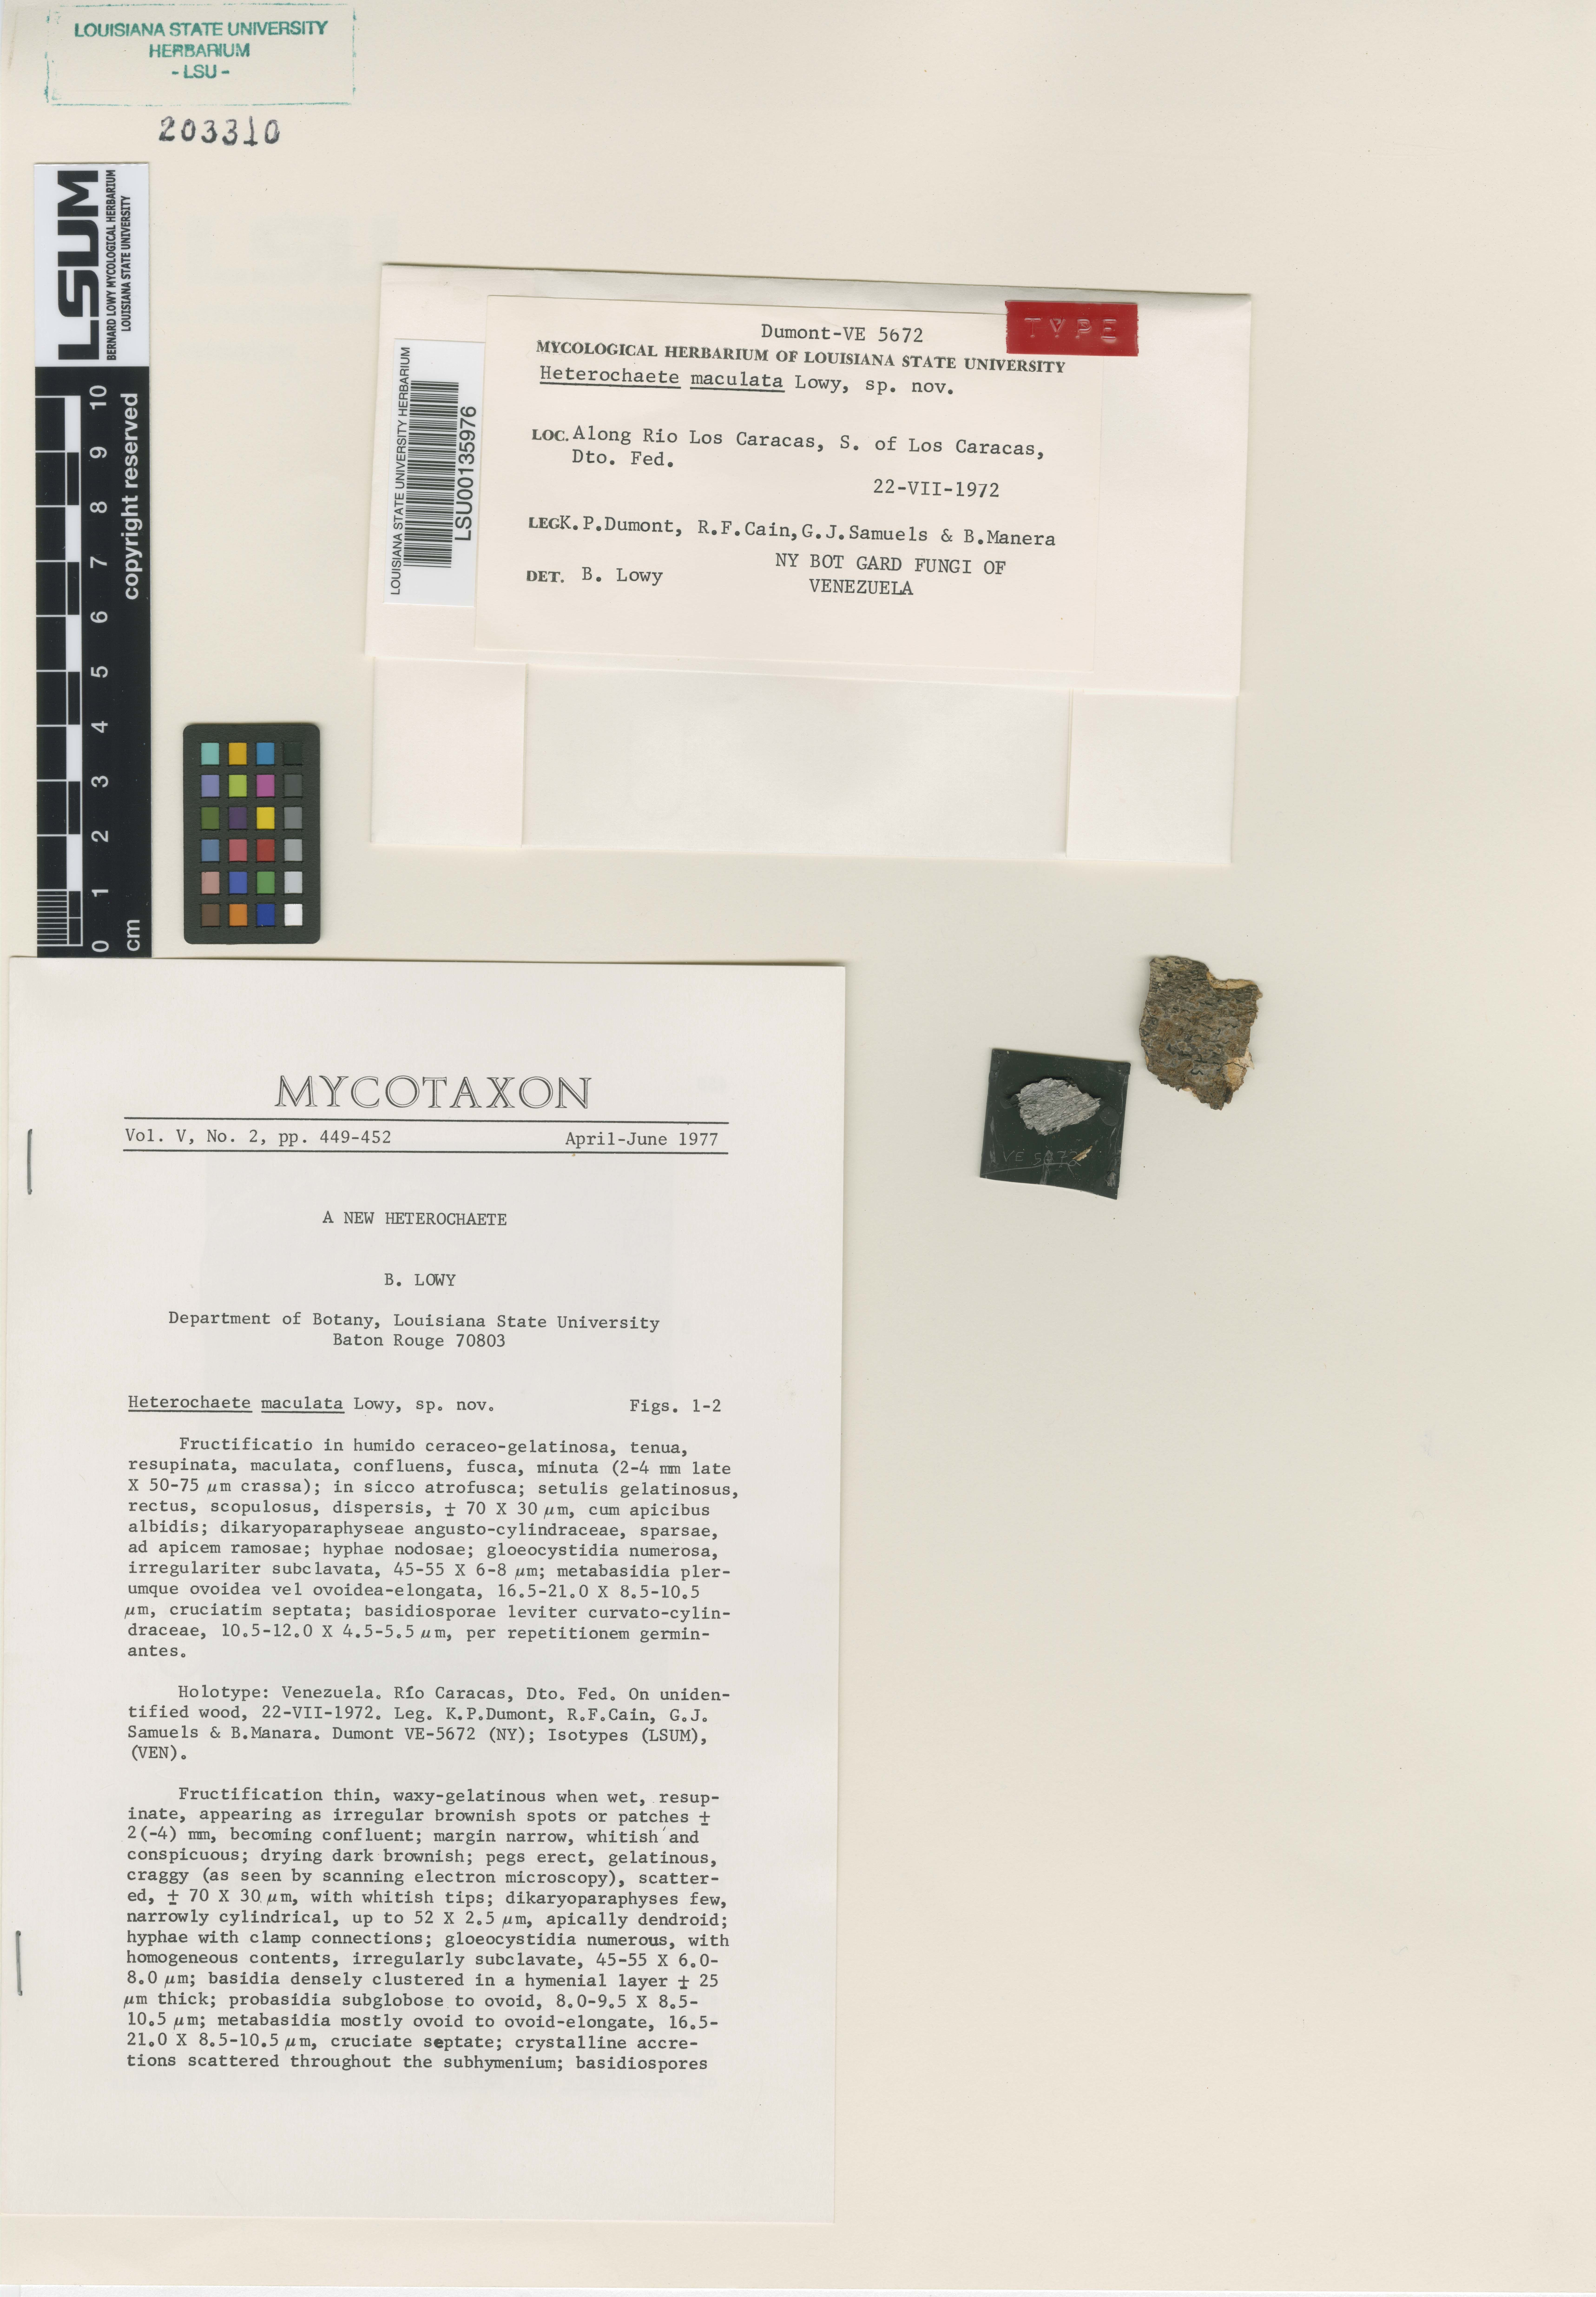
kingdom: Fungi
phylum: Basidiomycota
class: Agaricomycetes
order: Auriculariales
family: Auriculariaceae
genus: Heterochaete
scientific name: Heterochaete maculata
